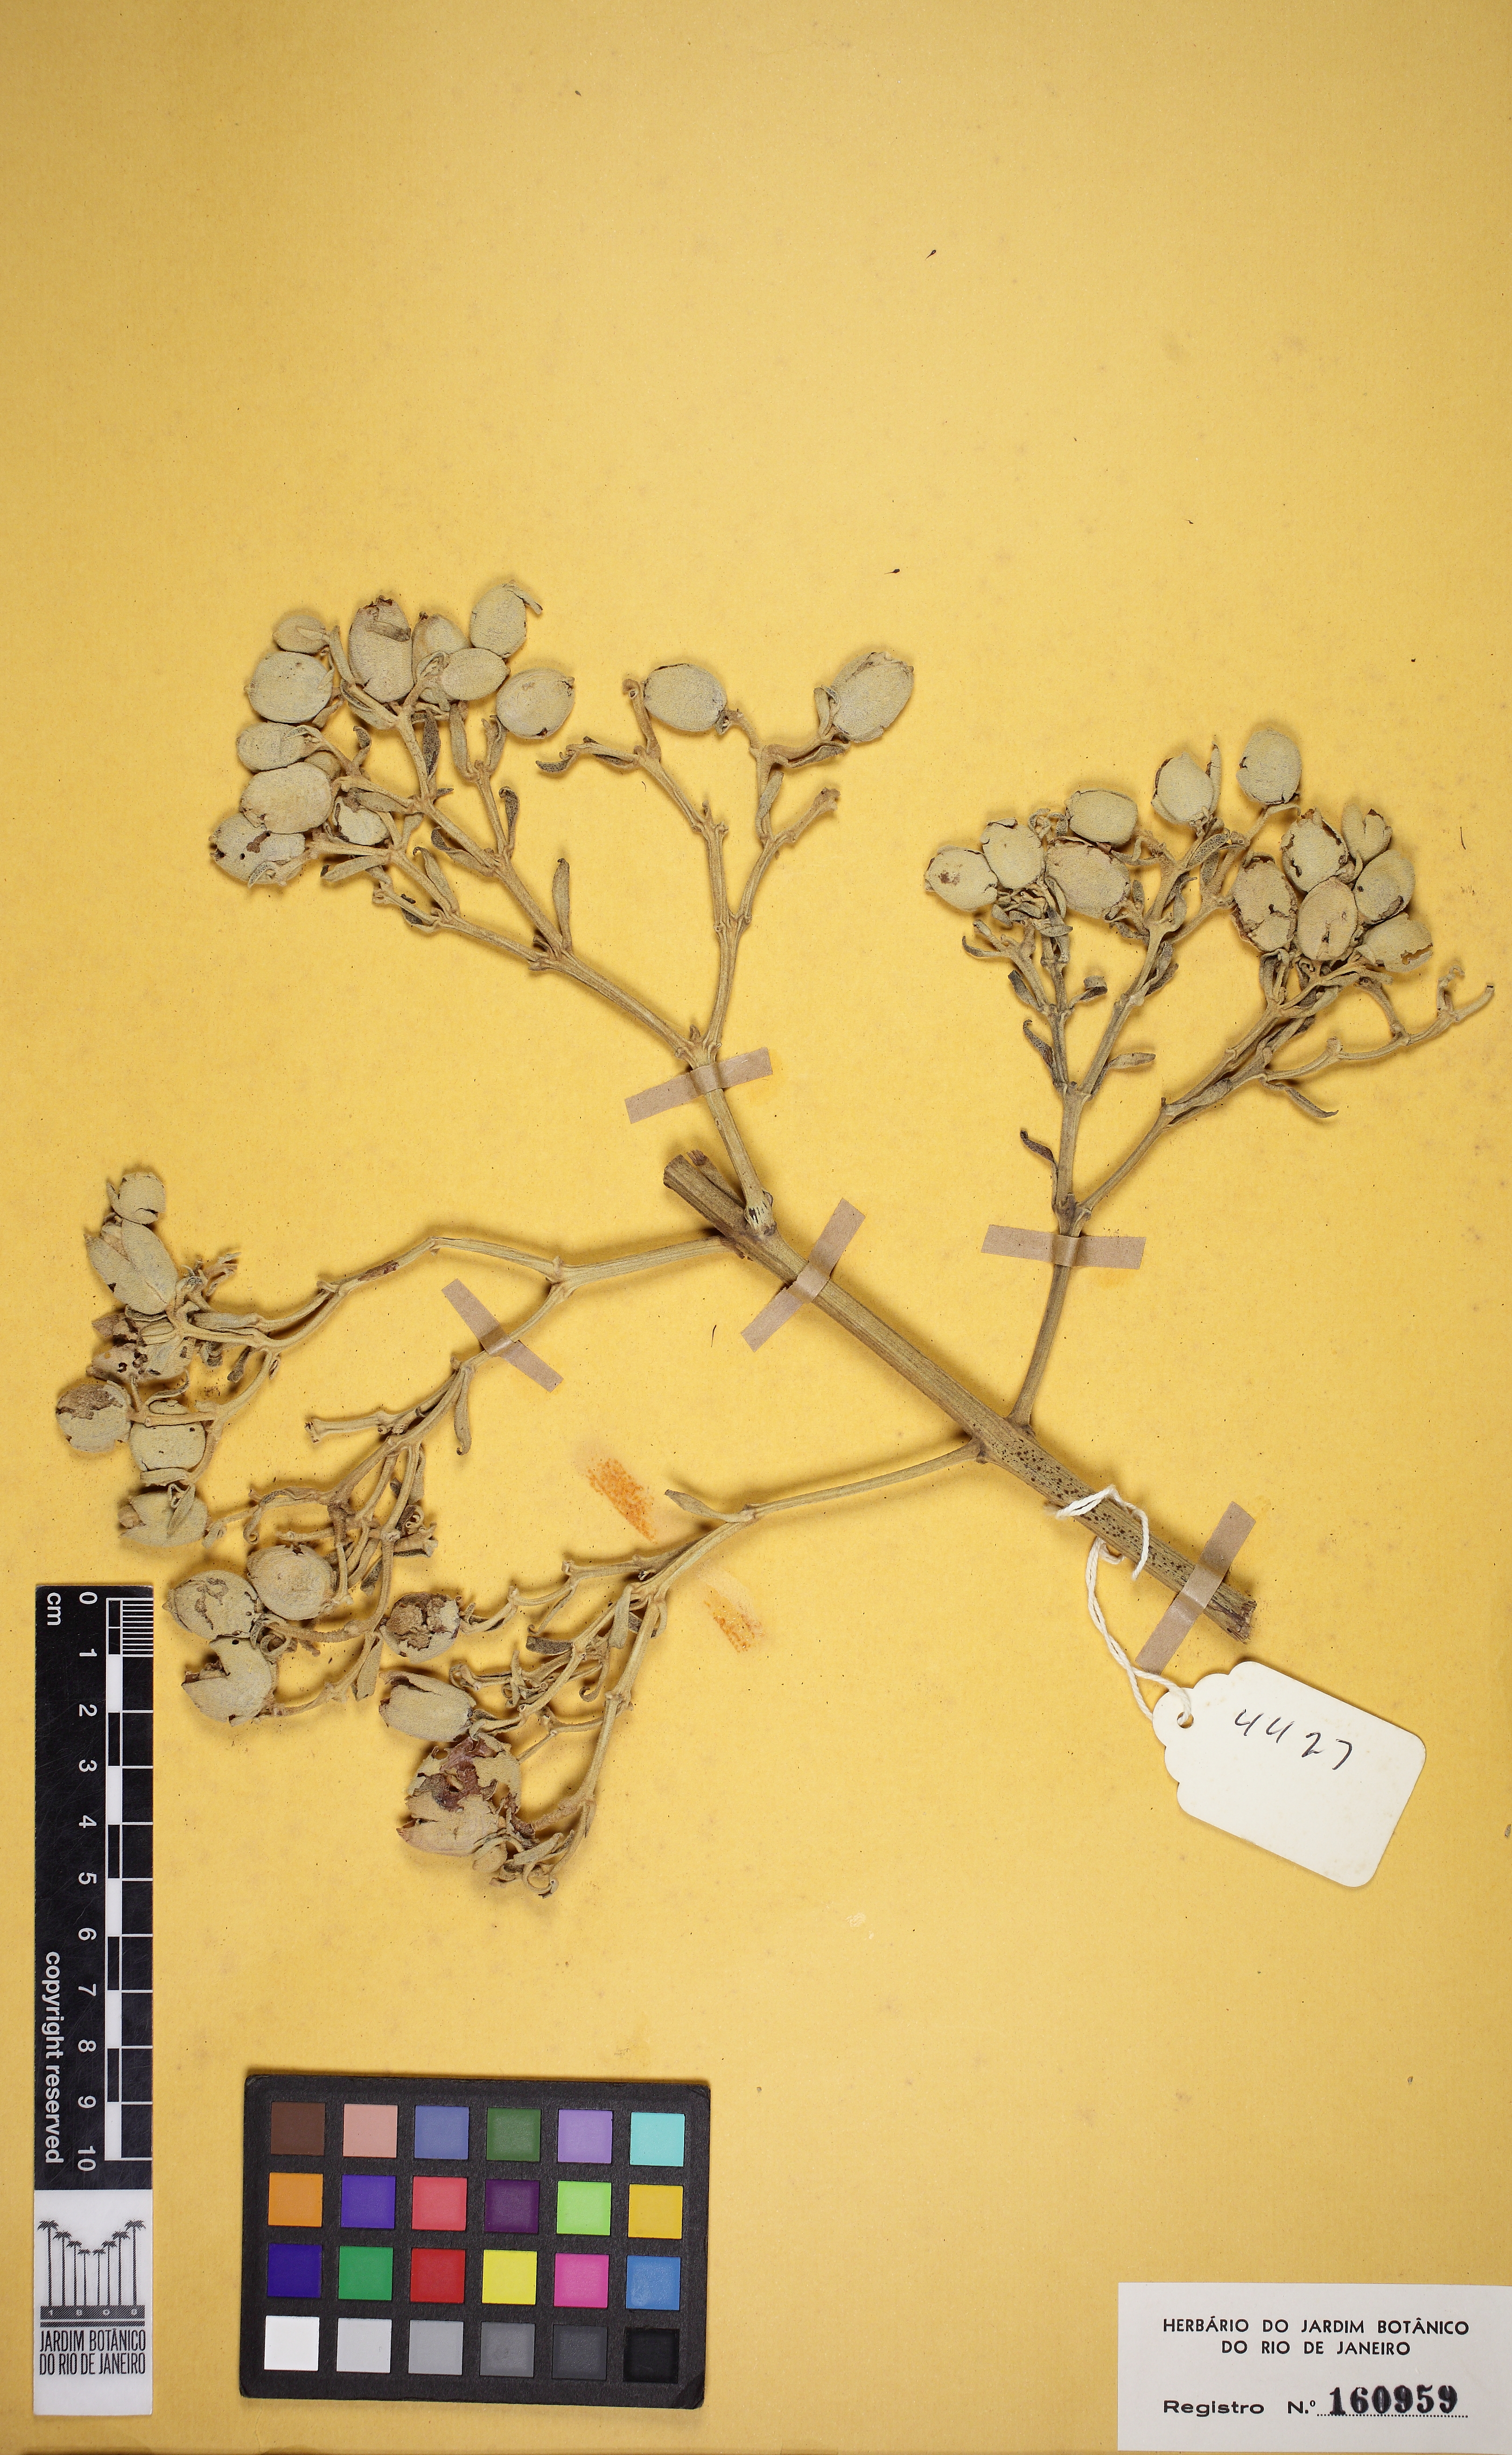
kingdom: Plantae
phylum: Tracheophyta
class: Magnoliopsida
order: Lamiales
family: Bignoniaceae
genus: Zeyheria
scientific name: Zeyheria montana
